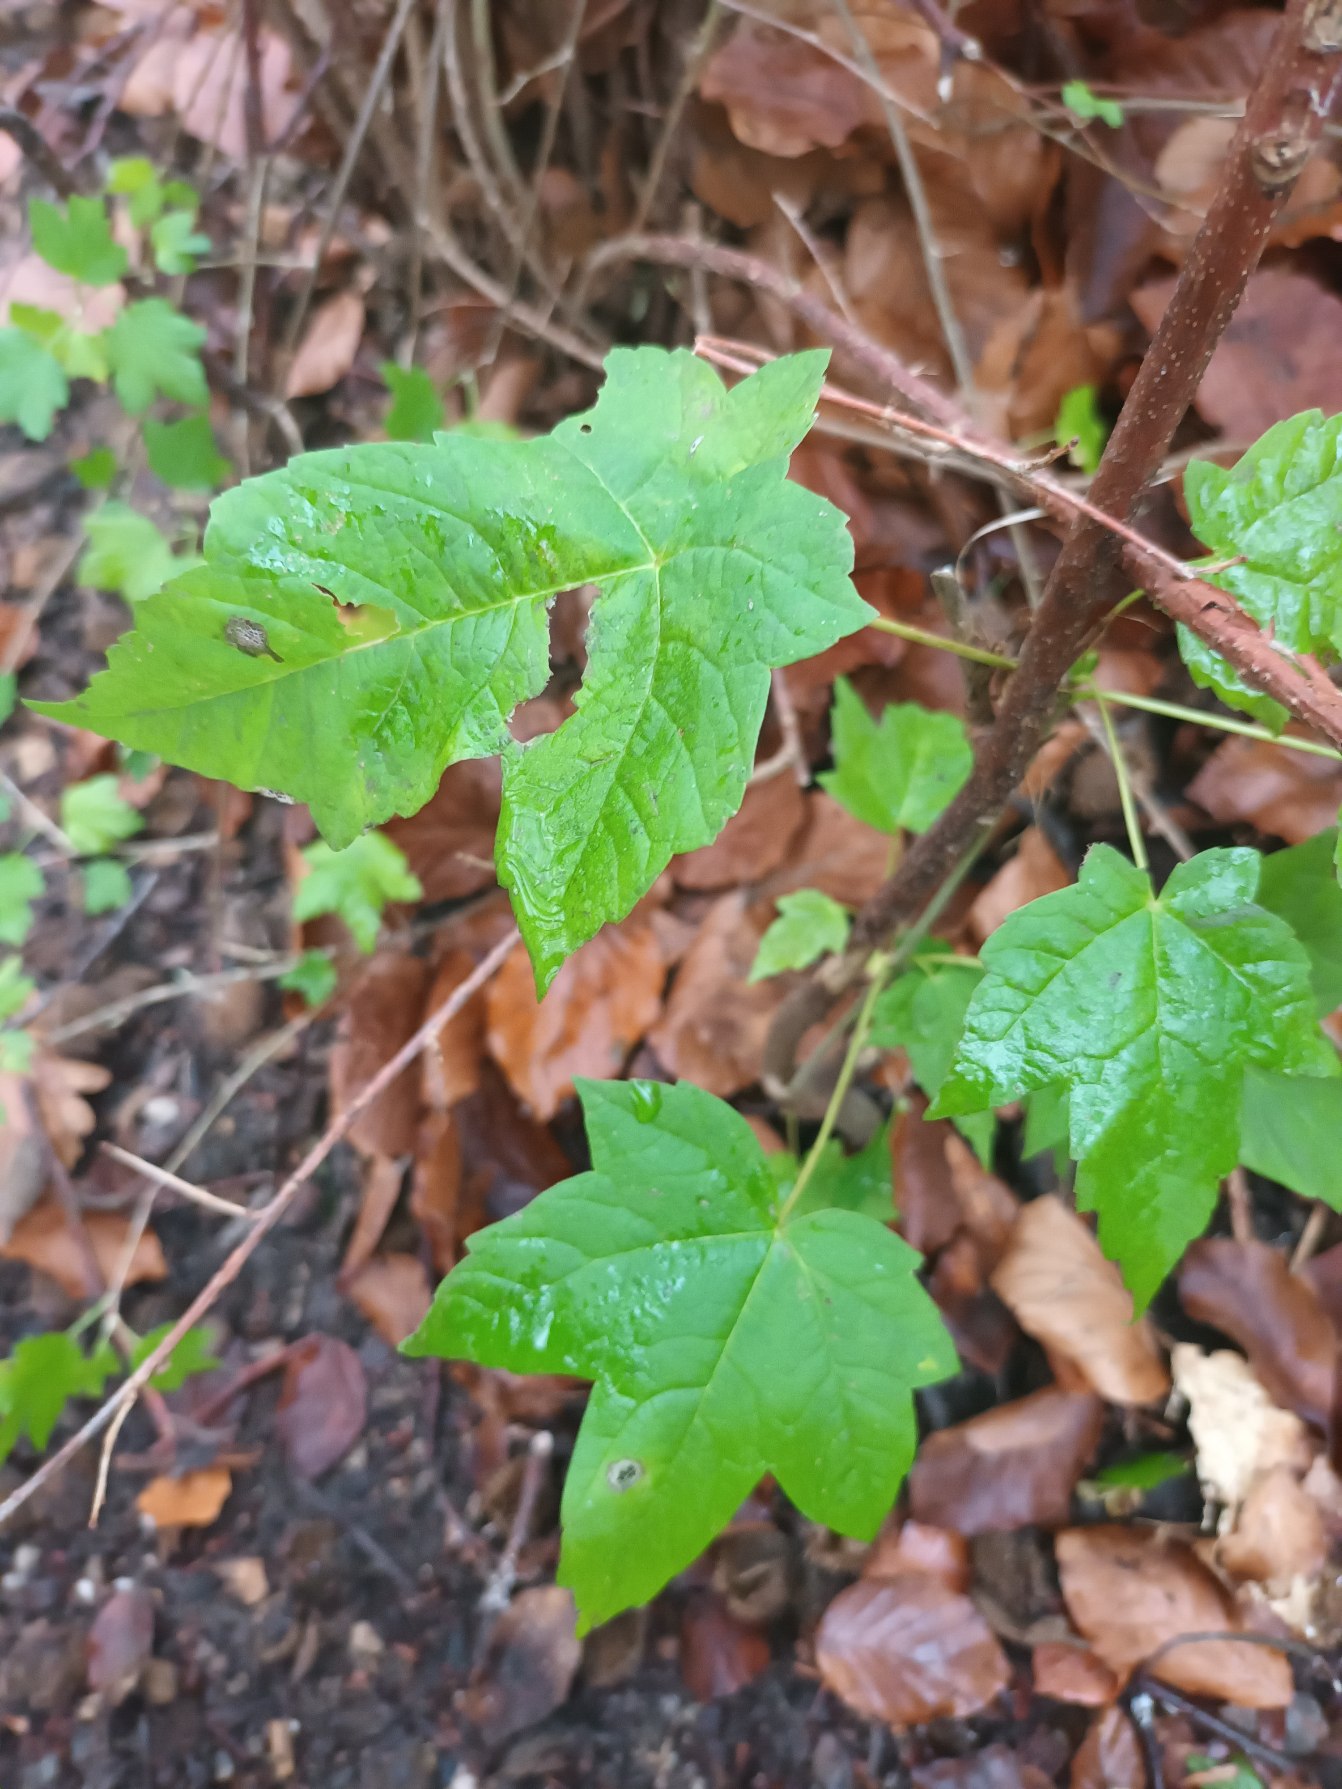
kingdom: Plantae
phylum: Tracheophyta
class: Magnoliopsida
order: Sapindales
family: Sapindaceae
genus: Acer
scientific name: Acer pseudoplatanus
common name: Ahorn
